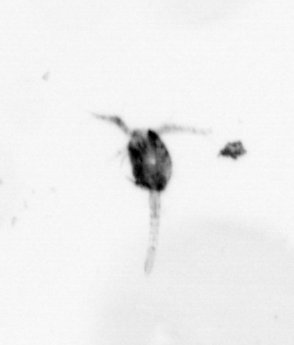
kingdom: Animalia
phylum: Arthropoda
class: Copepoda
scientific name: Copepoda
